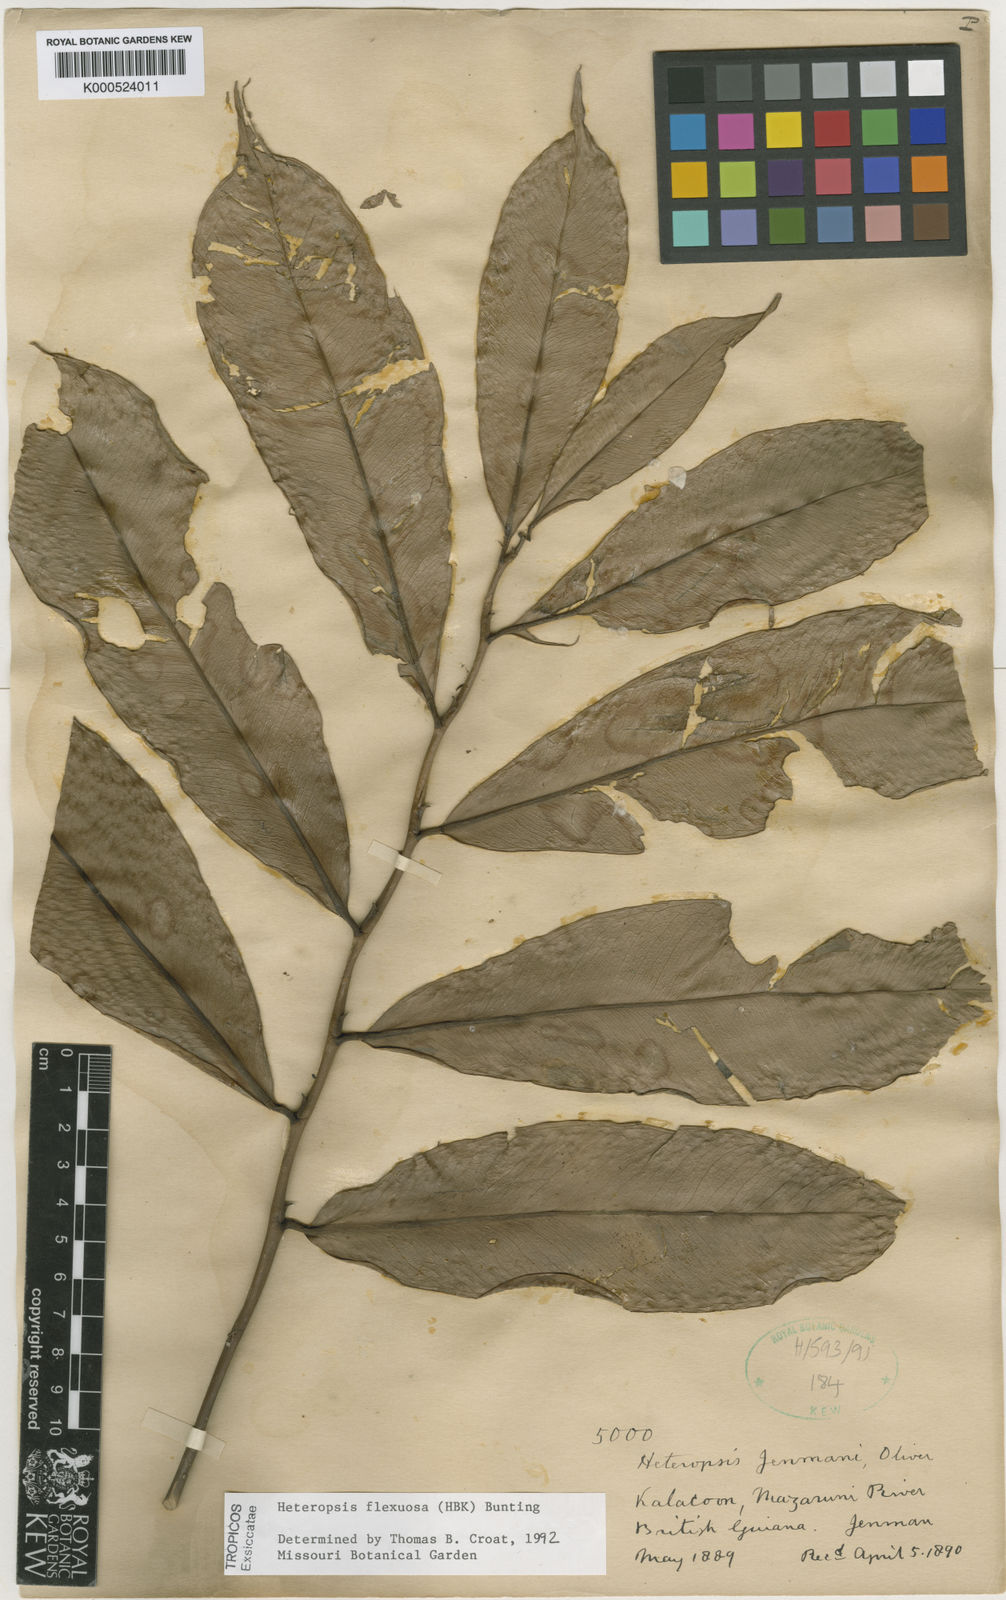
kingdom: Plantae
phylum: Tracheophyta
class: Liliopsida
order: Alismatales
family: Araceae
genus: Heteropsis
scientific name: Heteropsis flexuosa
